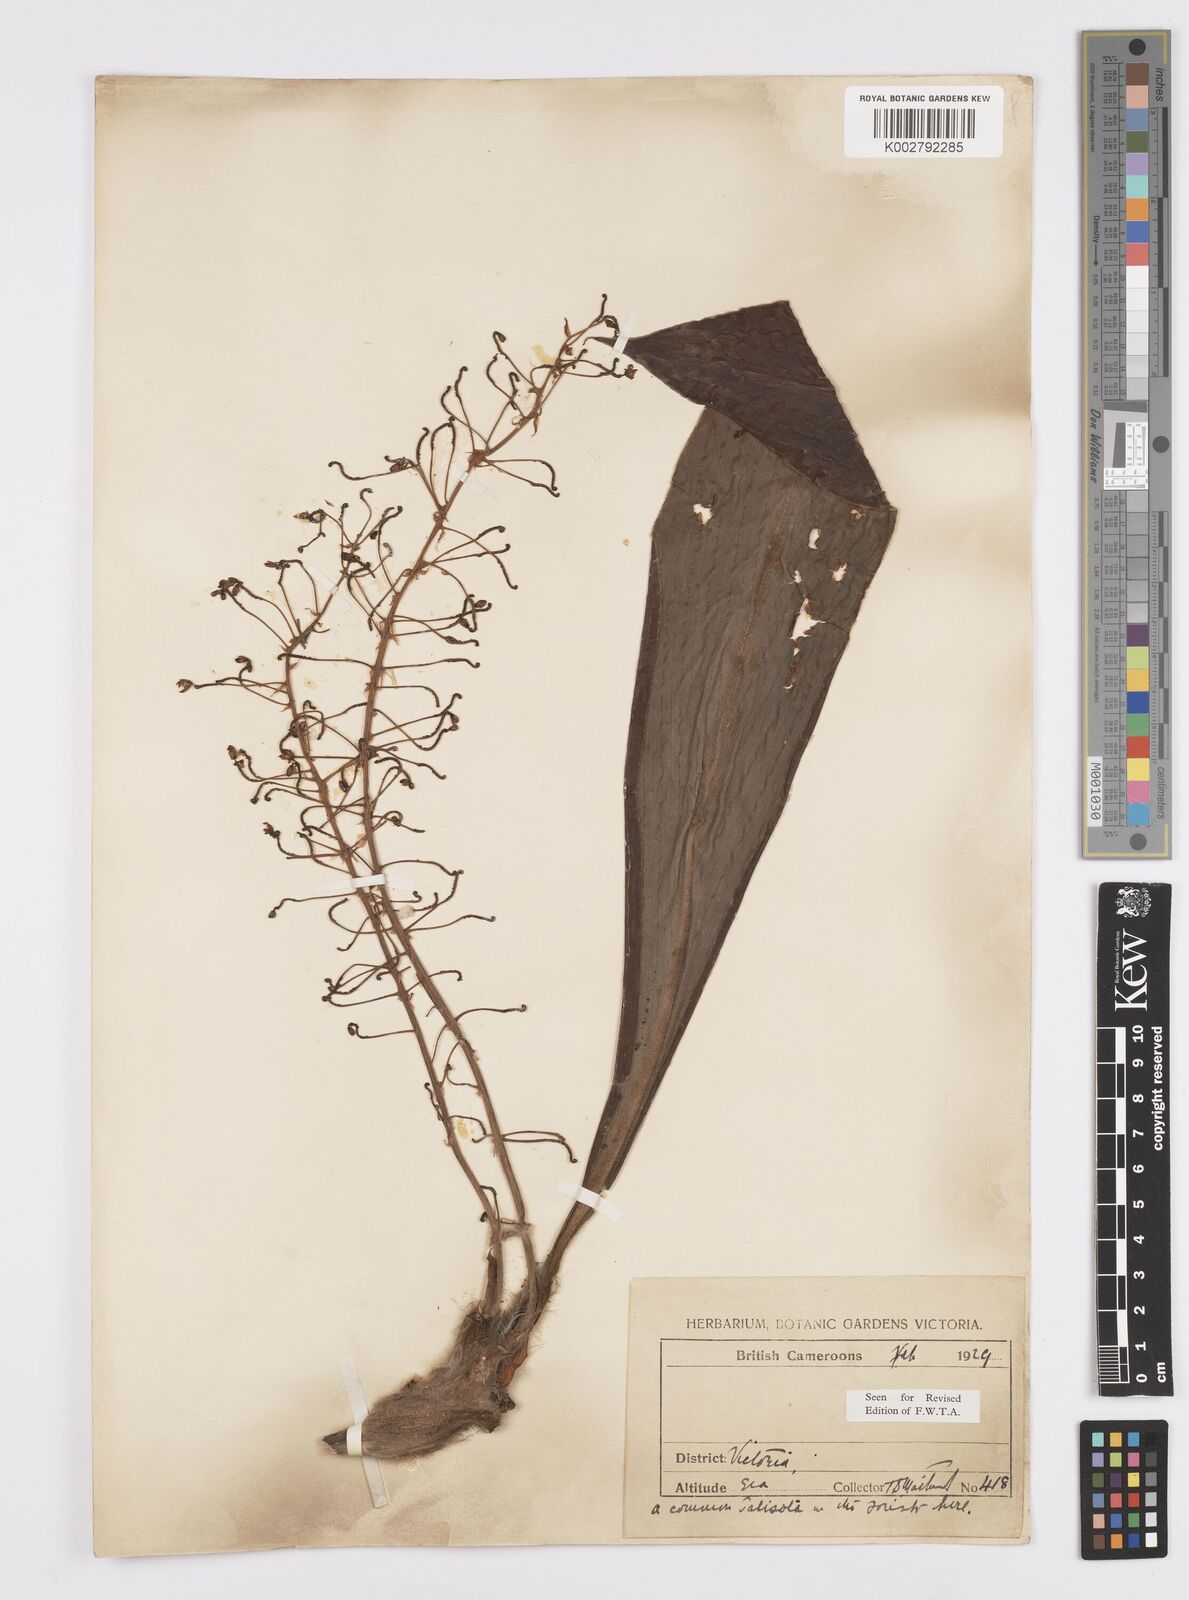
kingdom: Plantae
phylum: Tracheophyta
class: Liliopsida
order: Commelinales
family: Commelinaceae
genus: Palisota
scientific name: Palisota hirsuta
